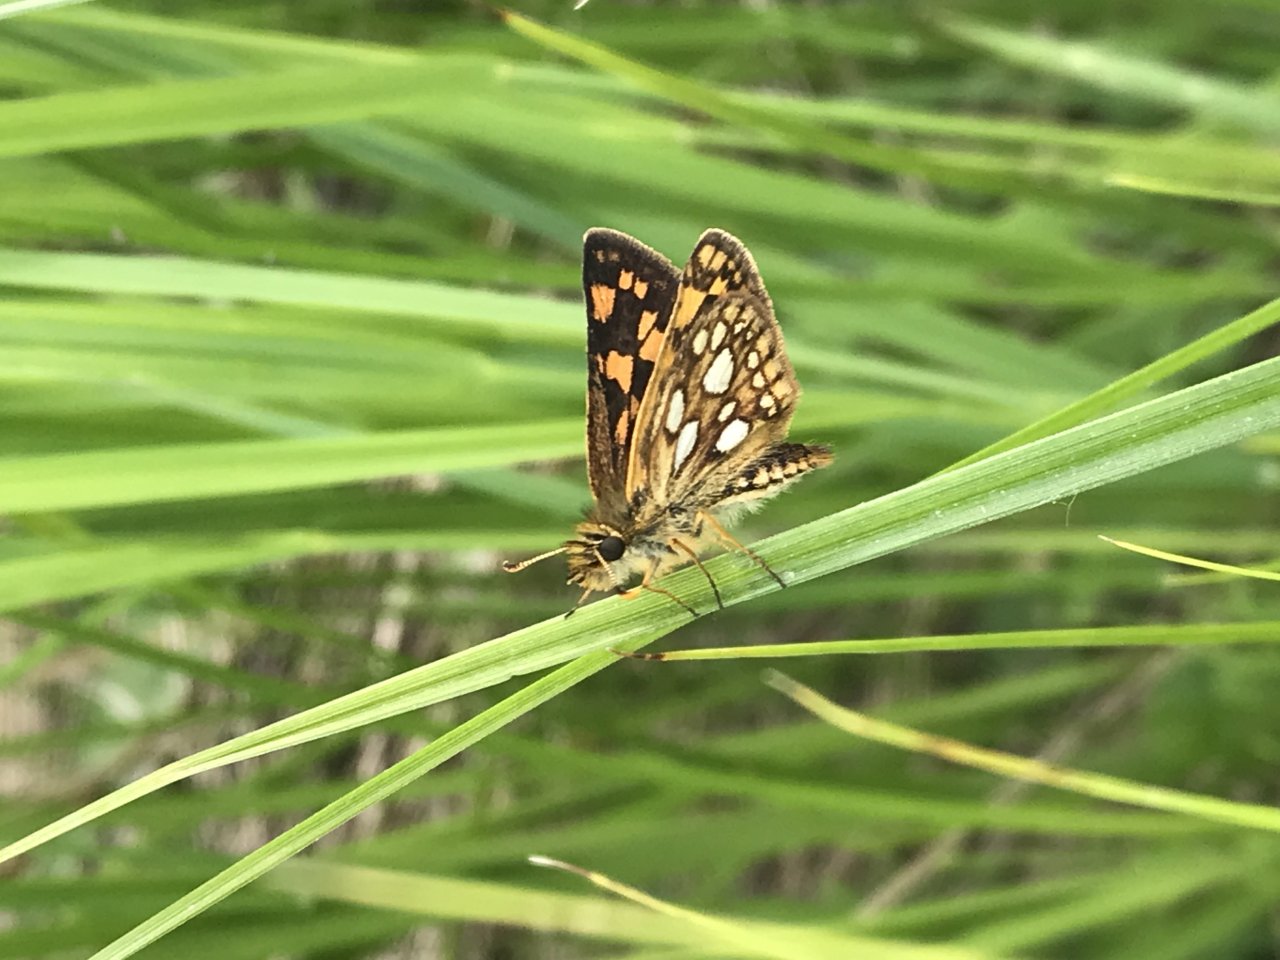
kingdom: Animalia
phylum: Arthropoda
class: Insecta
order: Lepidoptera
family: Hesperiidae
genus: Carterocephalus
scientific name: Carterocephalus palaemon
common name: Chequered Skipper
